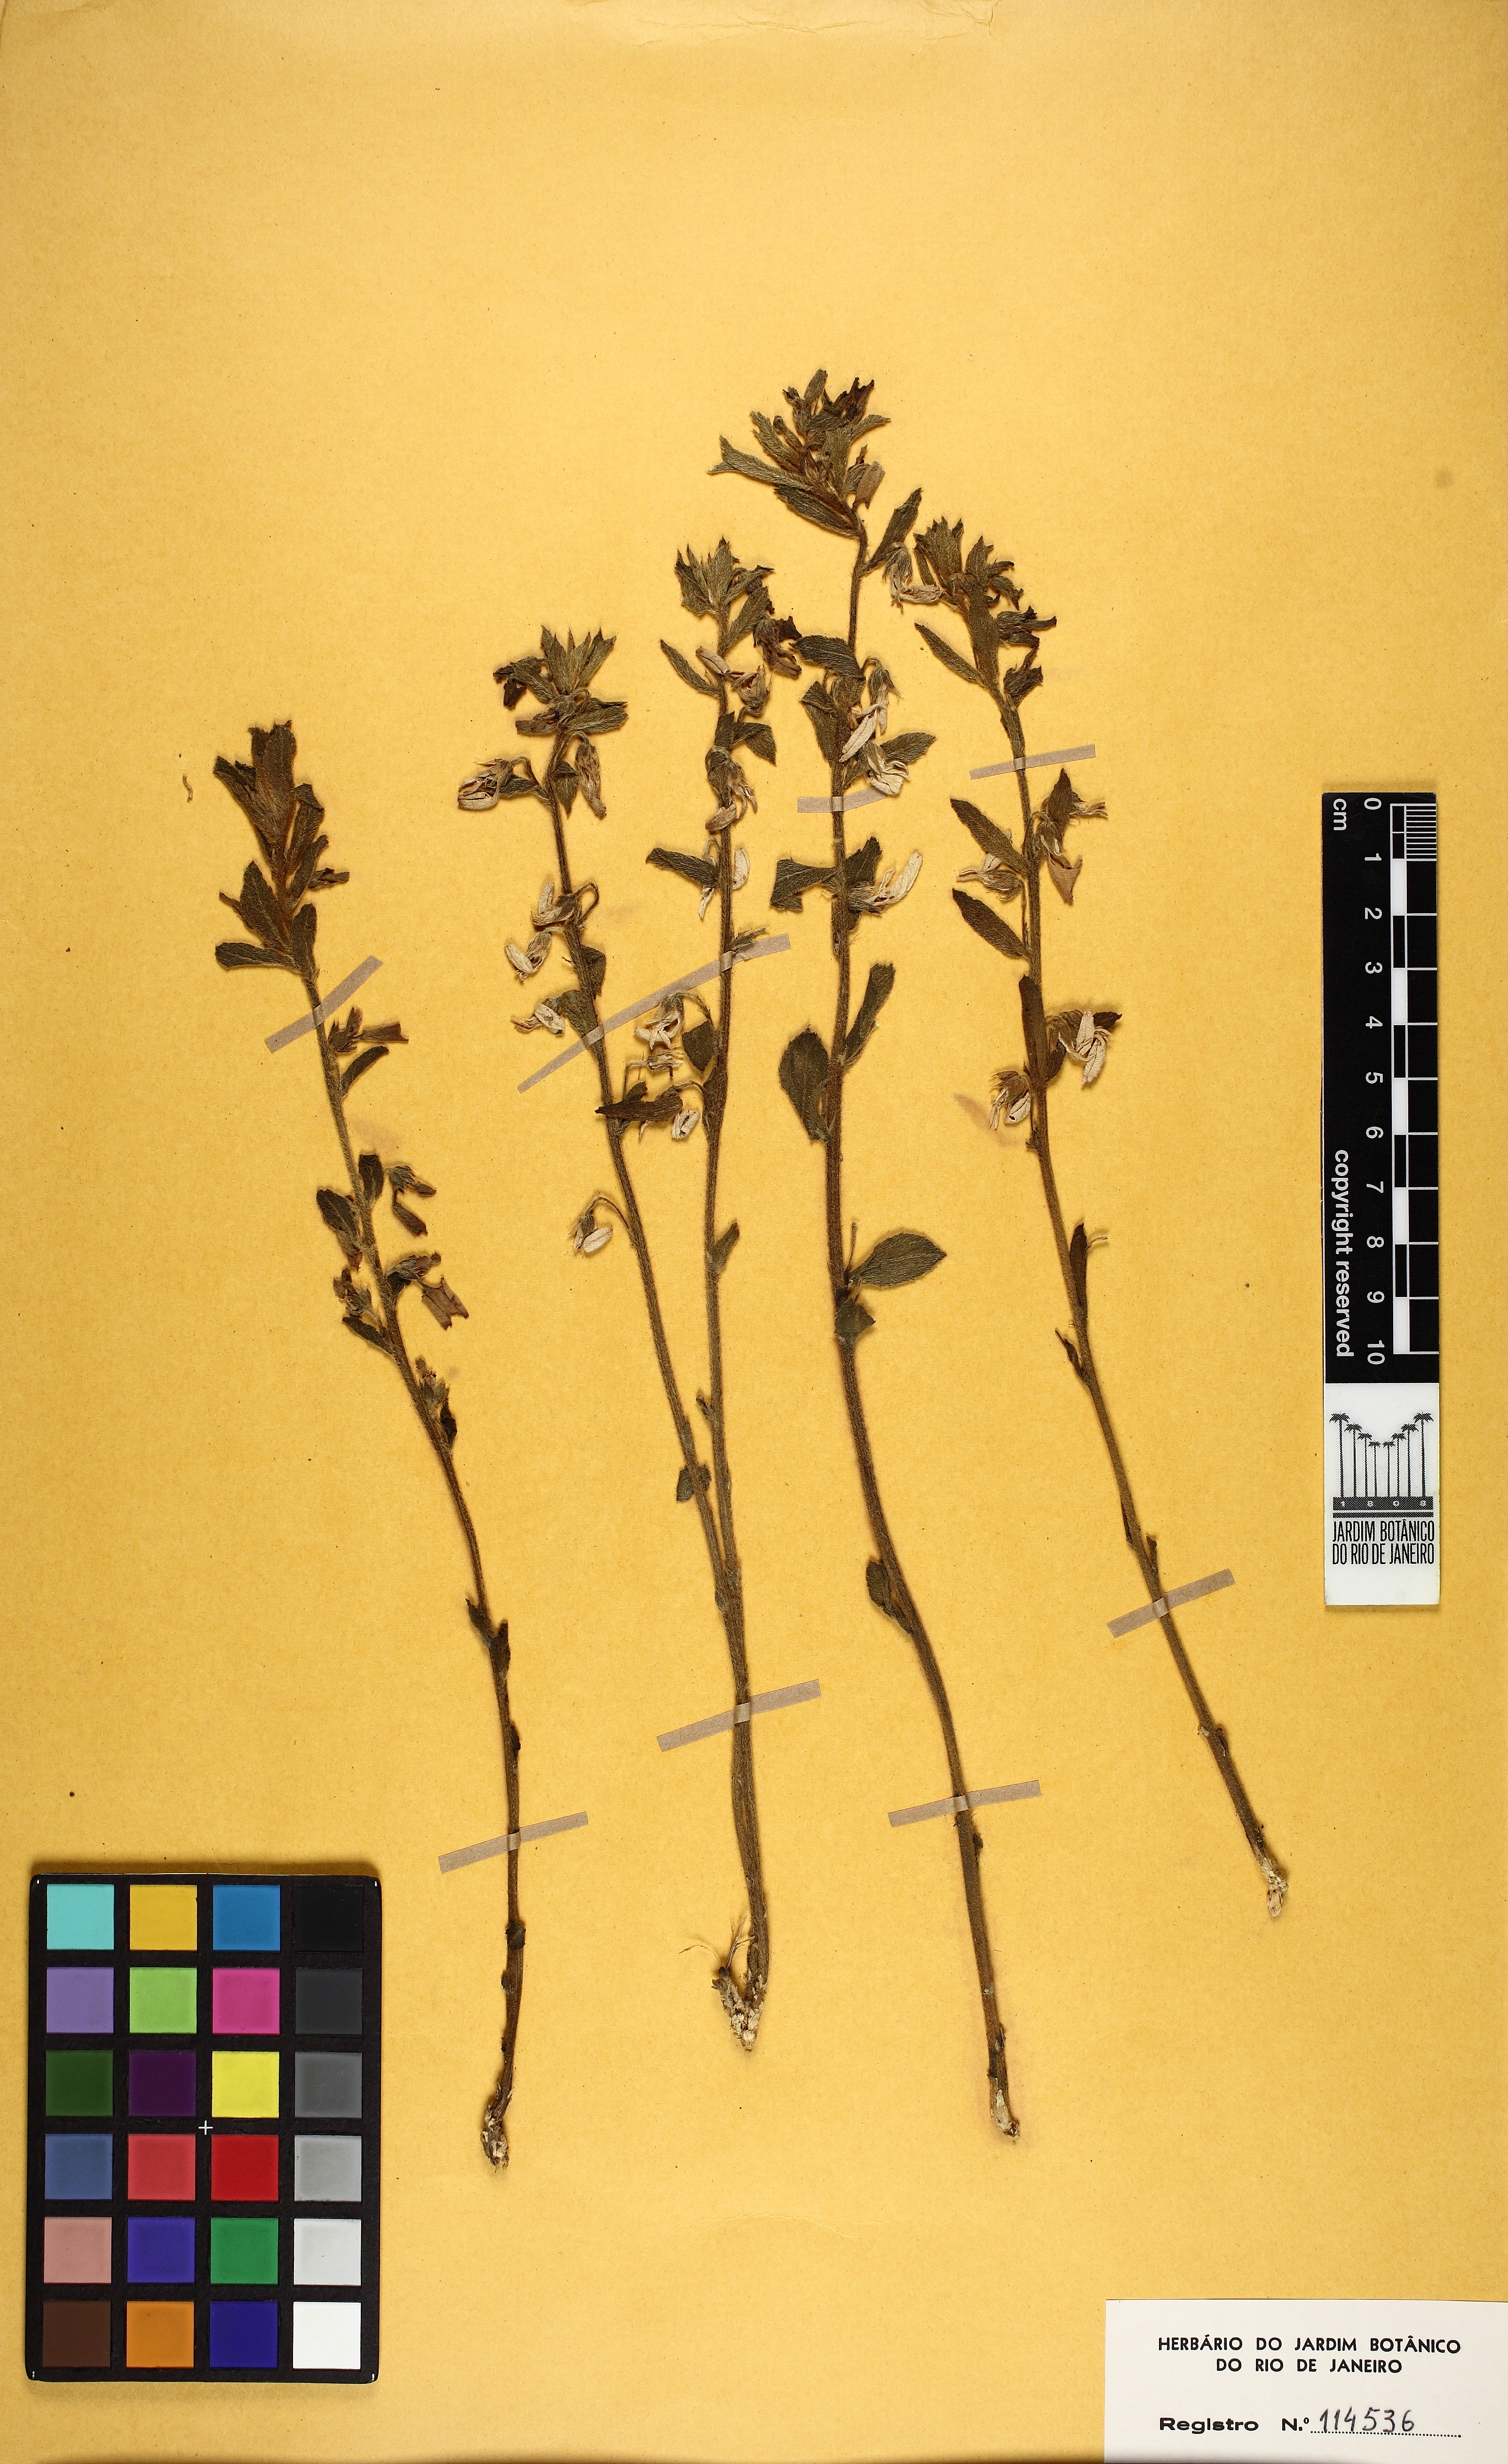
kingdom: Plantae
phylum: Tracheophyta
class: Magnoliopsida
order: Malpighiales
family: Violaceae
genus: Pombalia
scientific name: Pombalia lanata
